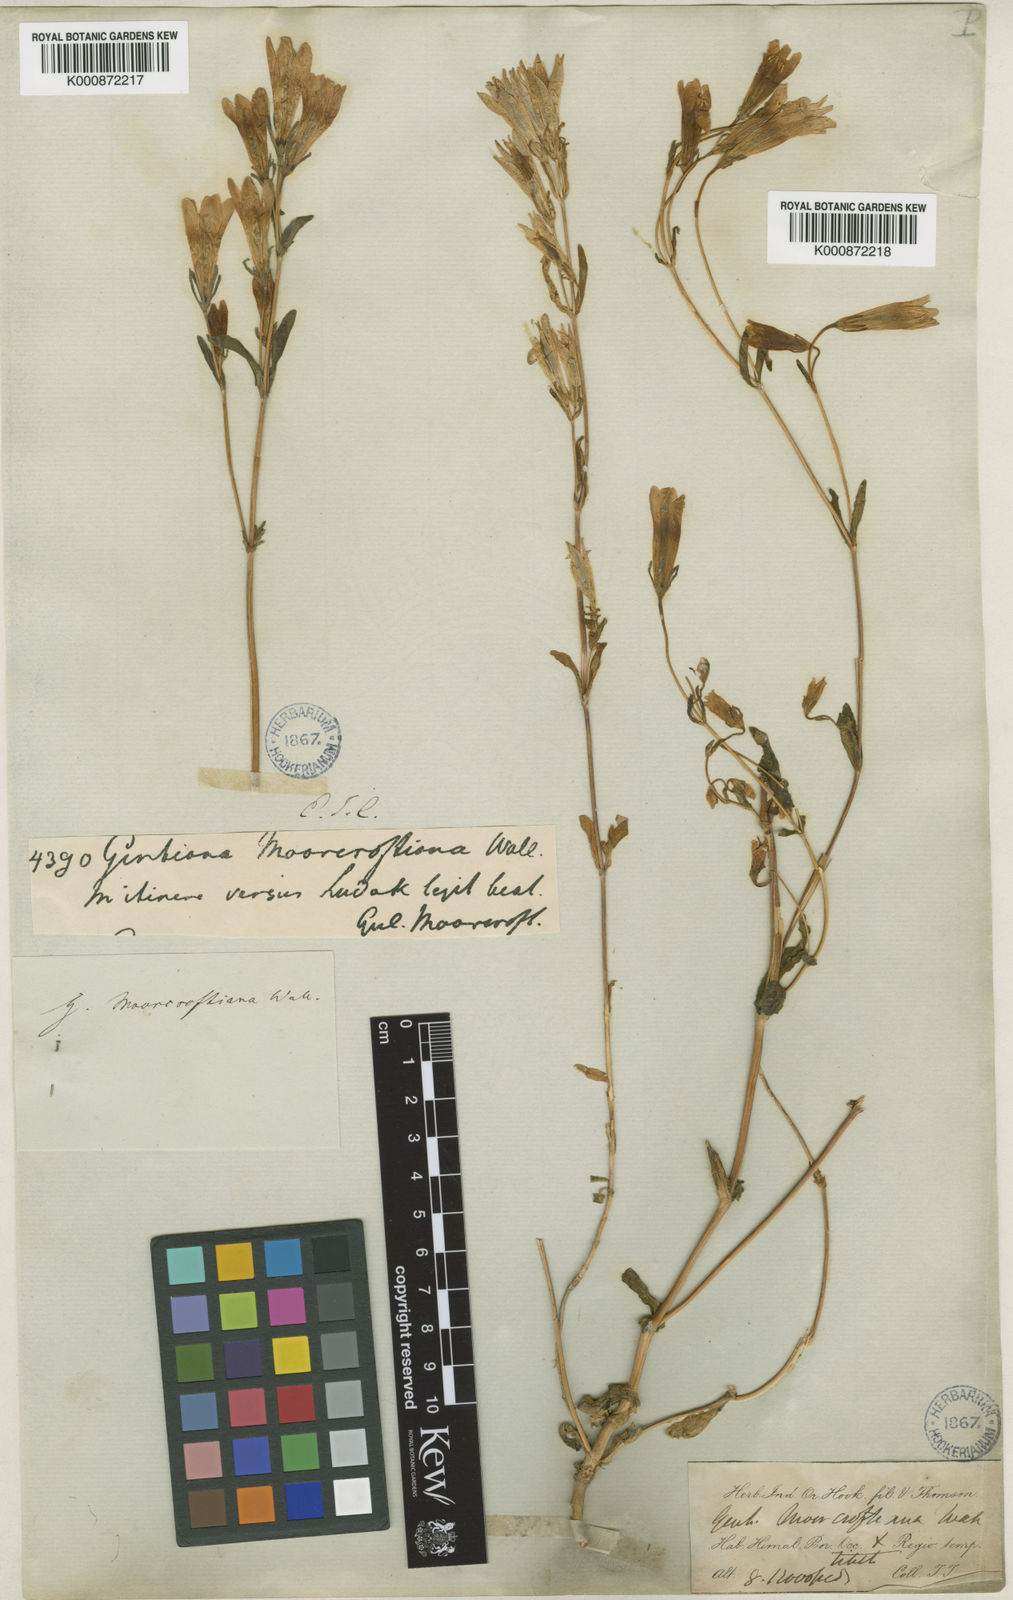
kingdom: Plantae
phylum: Tracheophyta
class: Magnoliopsida
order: Gentianales
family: Gentianaceae
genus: Gentiana
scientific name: Gentiana
